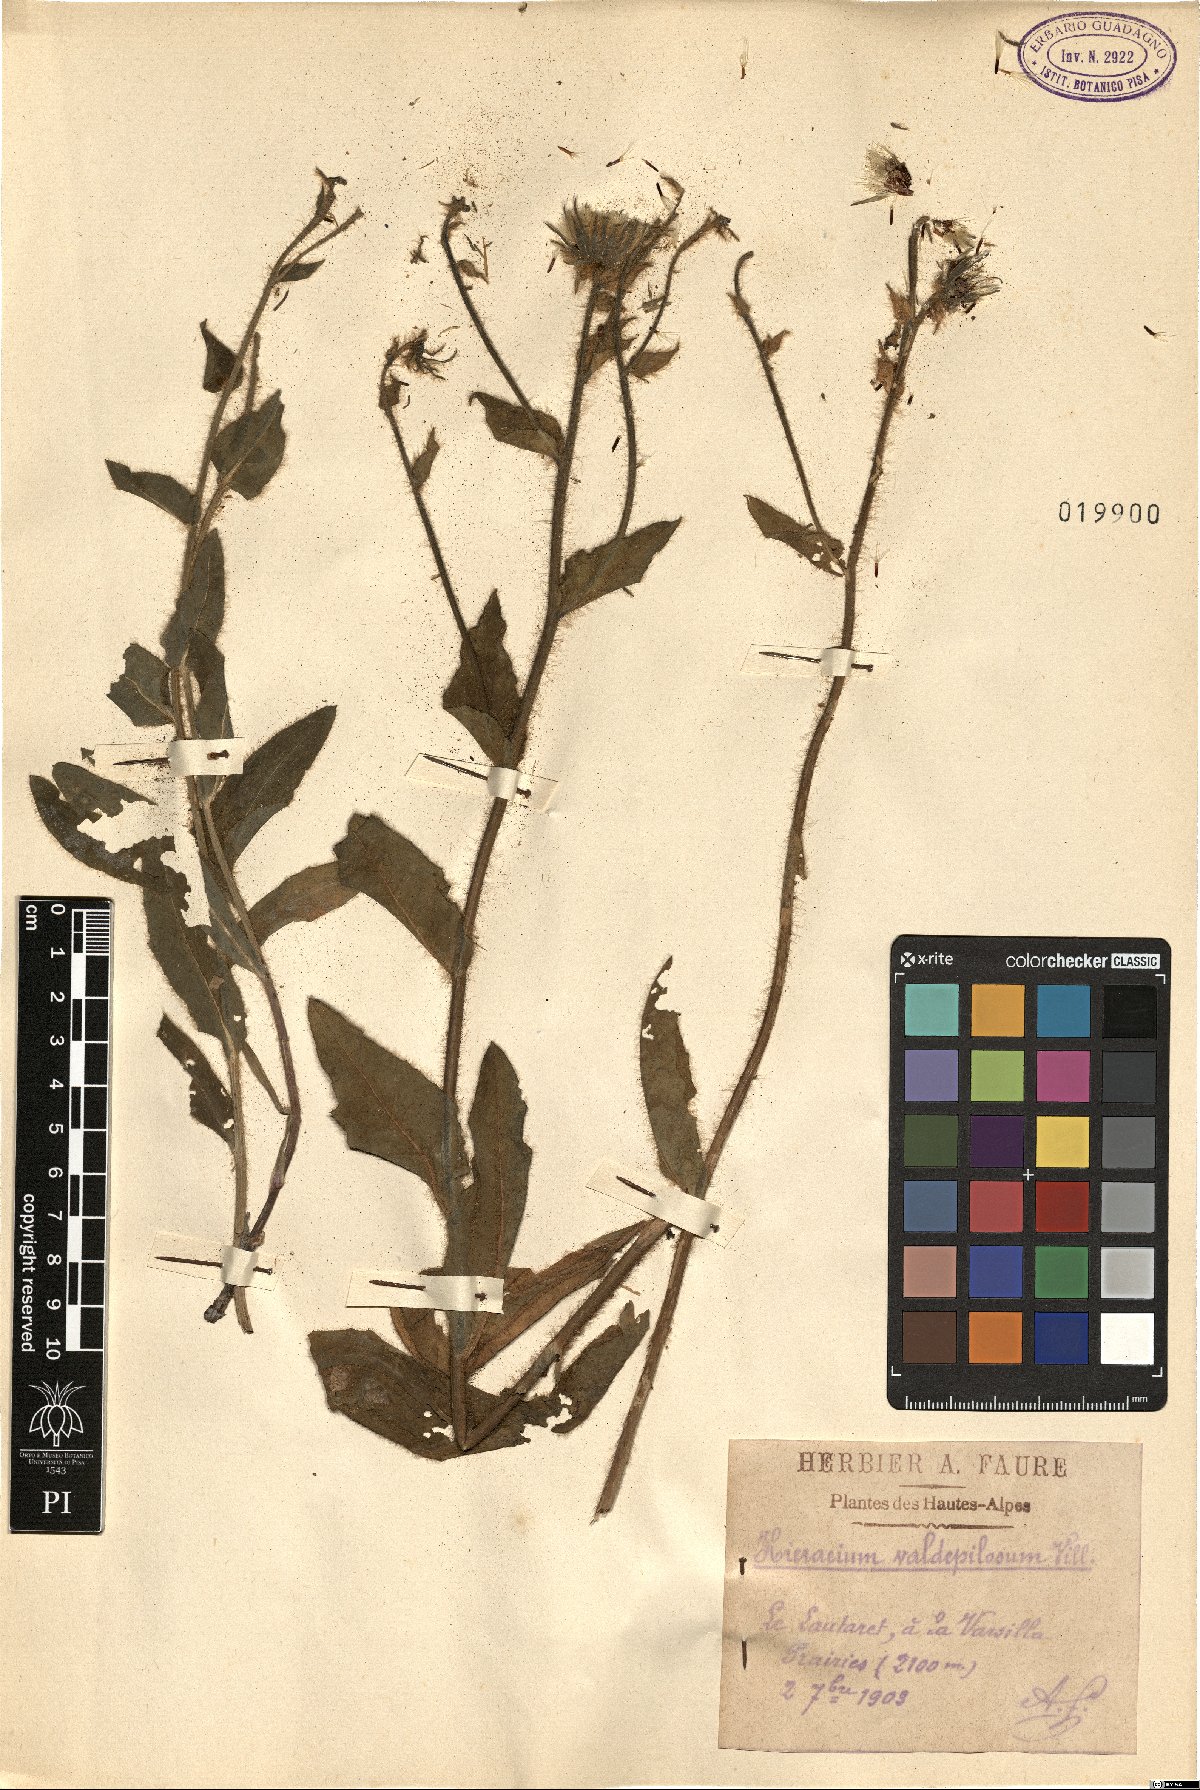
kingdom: Plantae
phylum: Tracheophyta
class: Magnoliopsida
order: Asterales
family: Asteraceae
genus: Hieracium
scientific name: Hieracium valdepilosum
